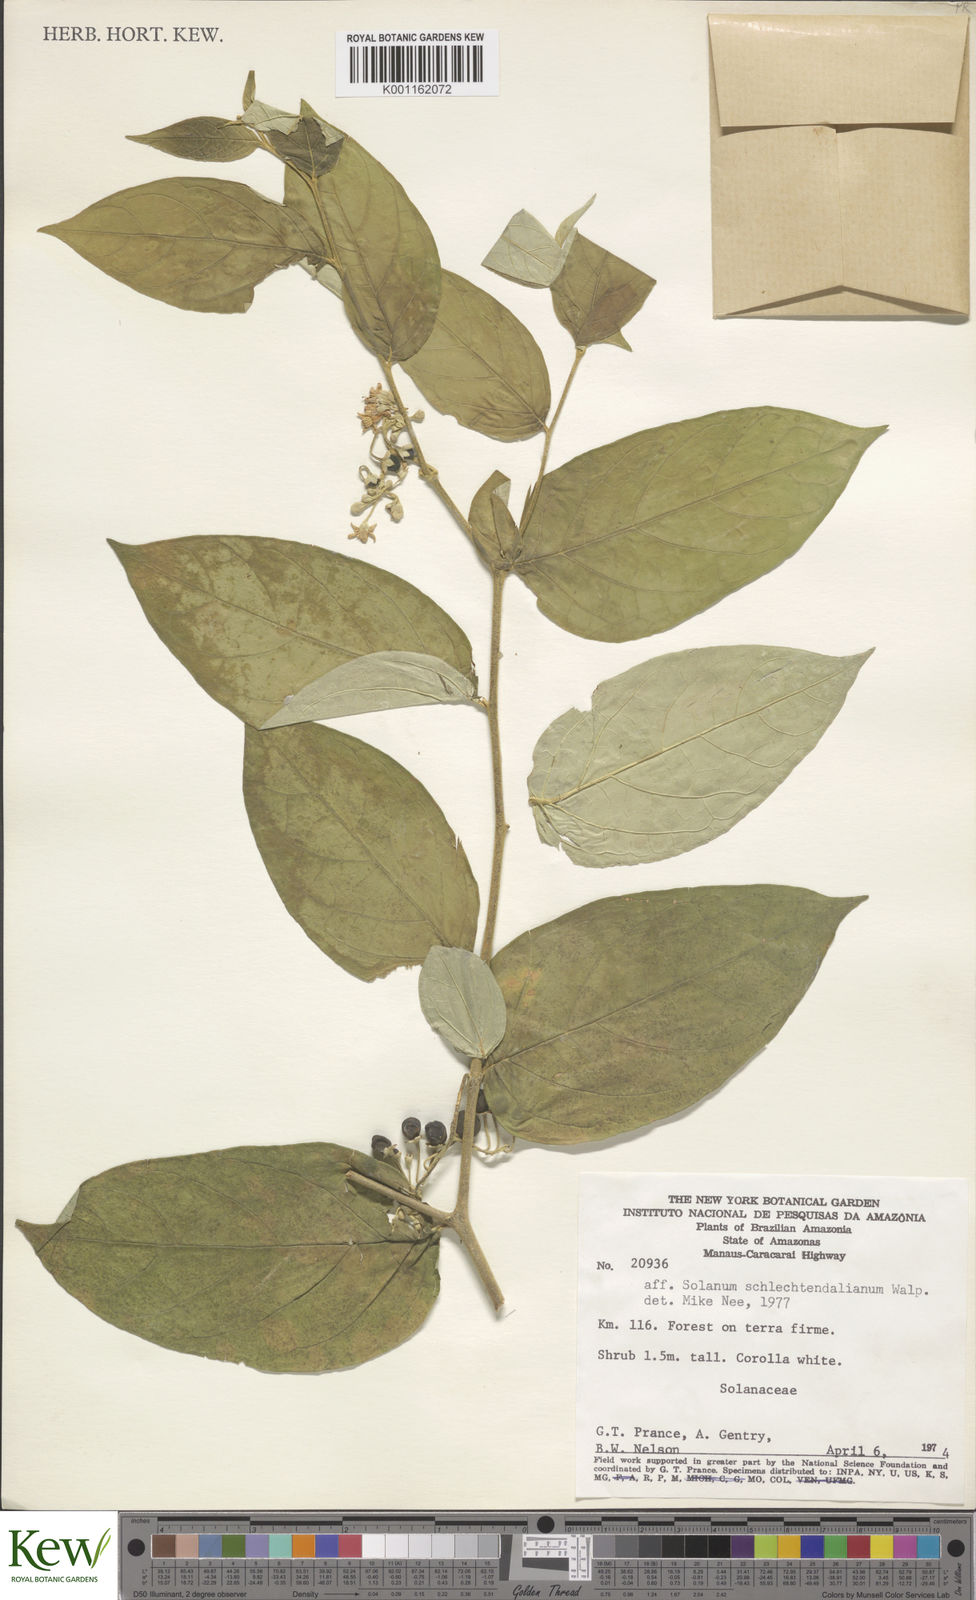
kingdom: Plantae
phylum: Tracheophyta
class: Magnoliopsida
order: Solanales
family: Solanaceae
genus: Solanum
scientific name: Solanum schlechtendalianum
